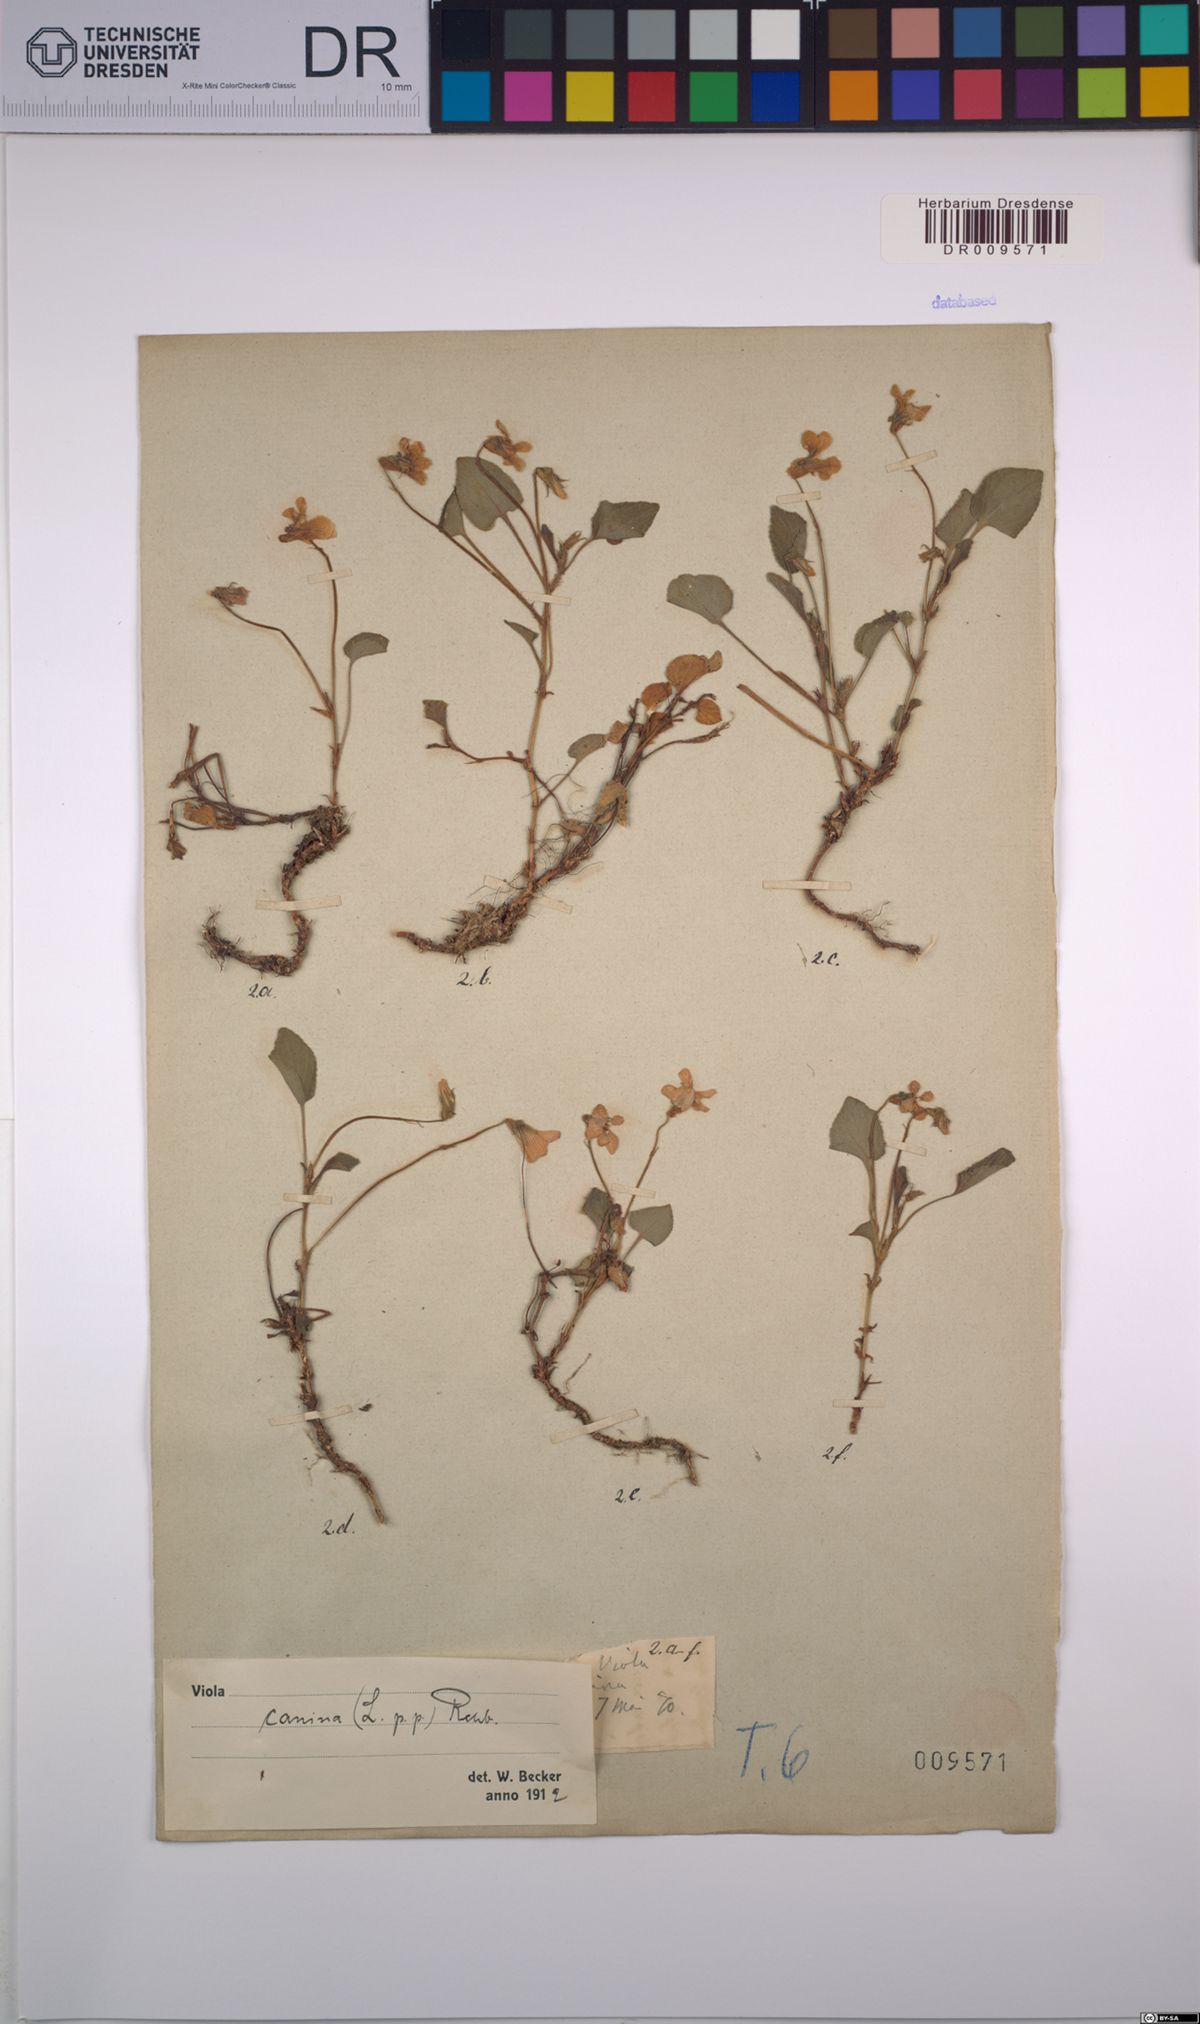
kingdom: Plantae
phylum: Tracheophyta
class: Magnoliopsida
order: Malpighiales
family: Violaceae
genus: Viola
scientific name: Viola canina
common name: Heath dog-violet
